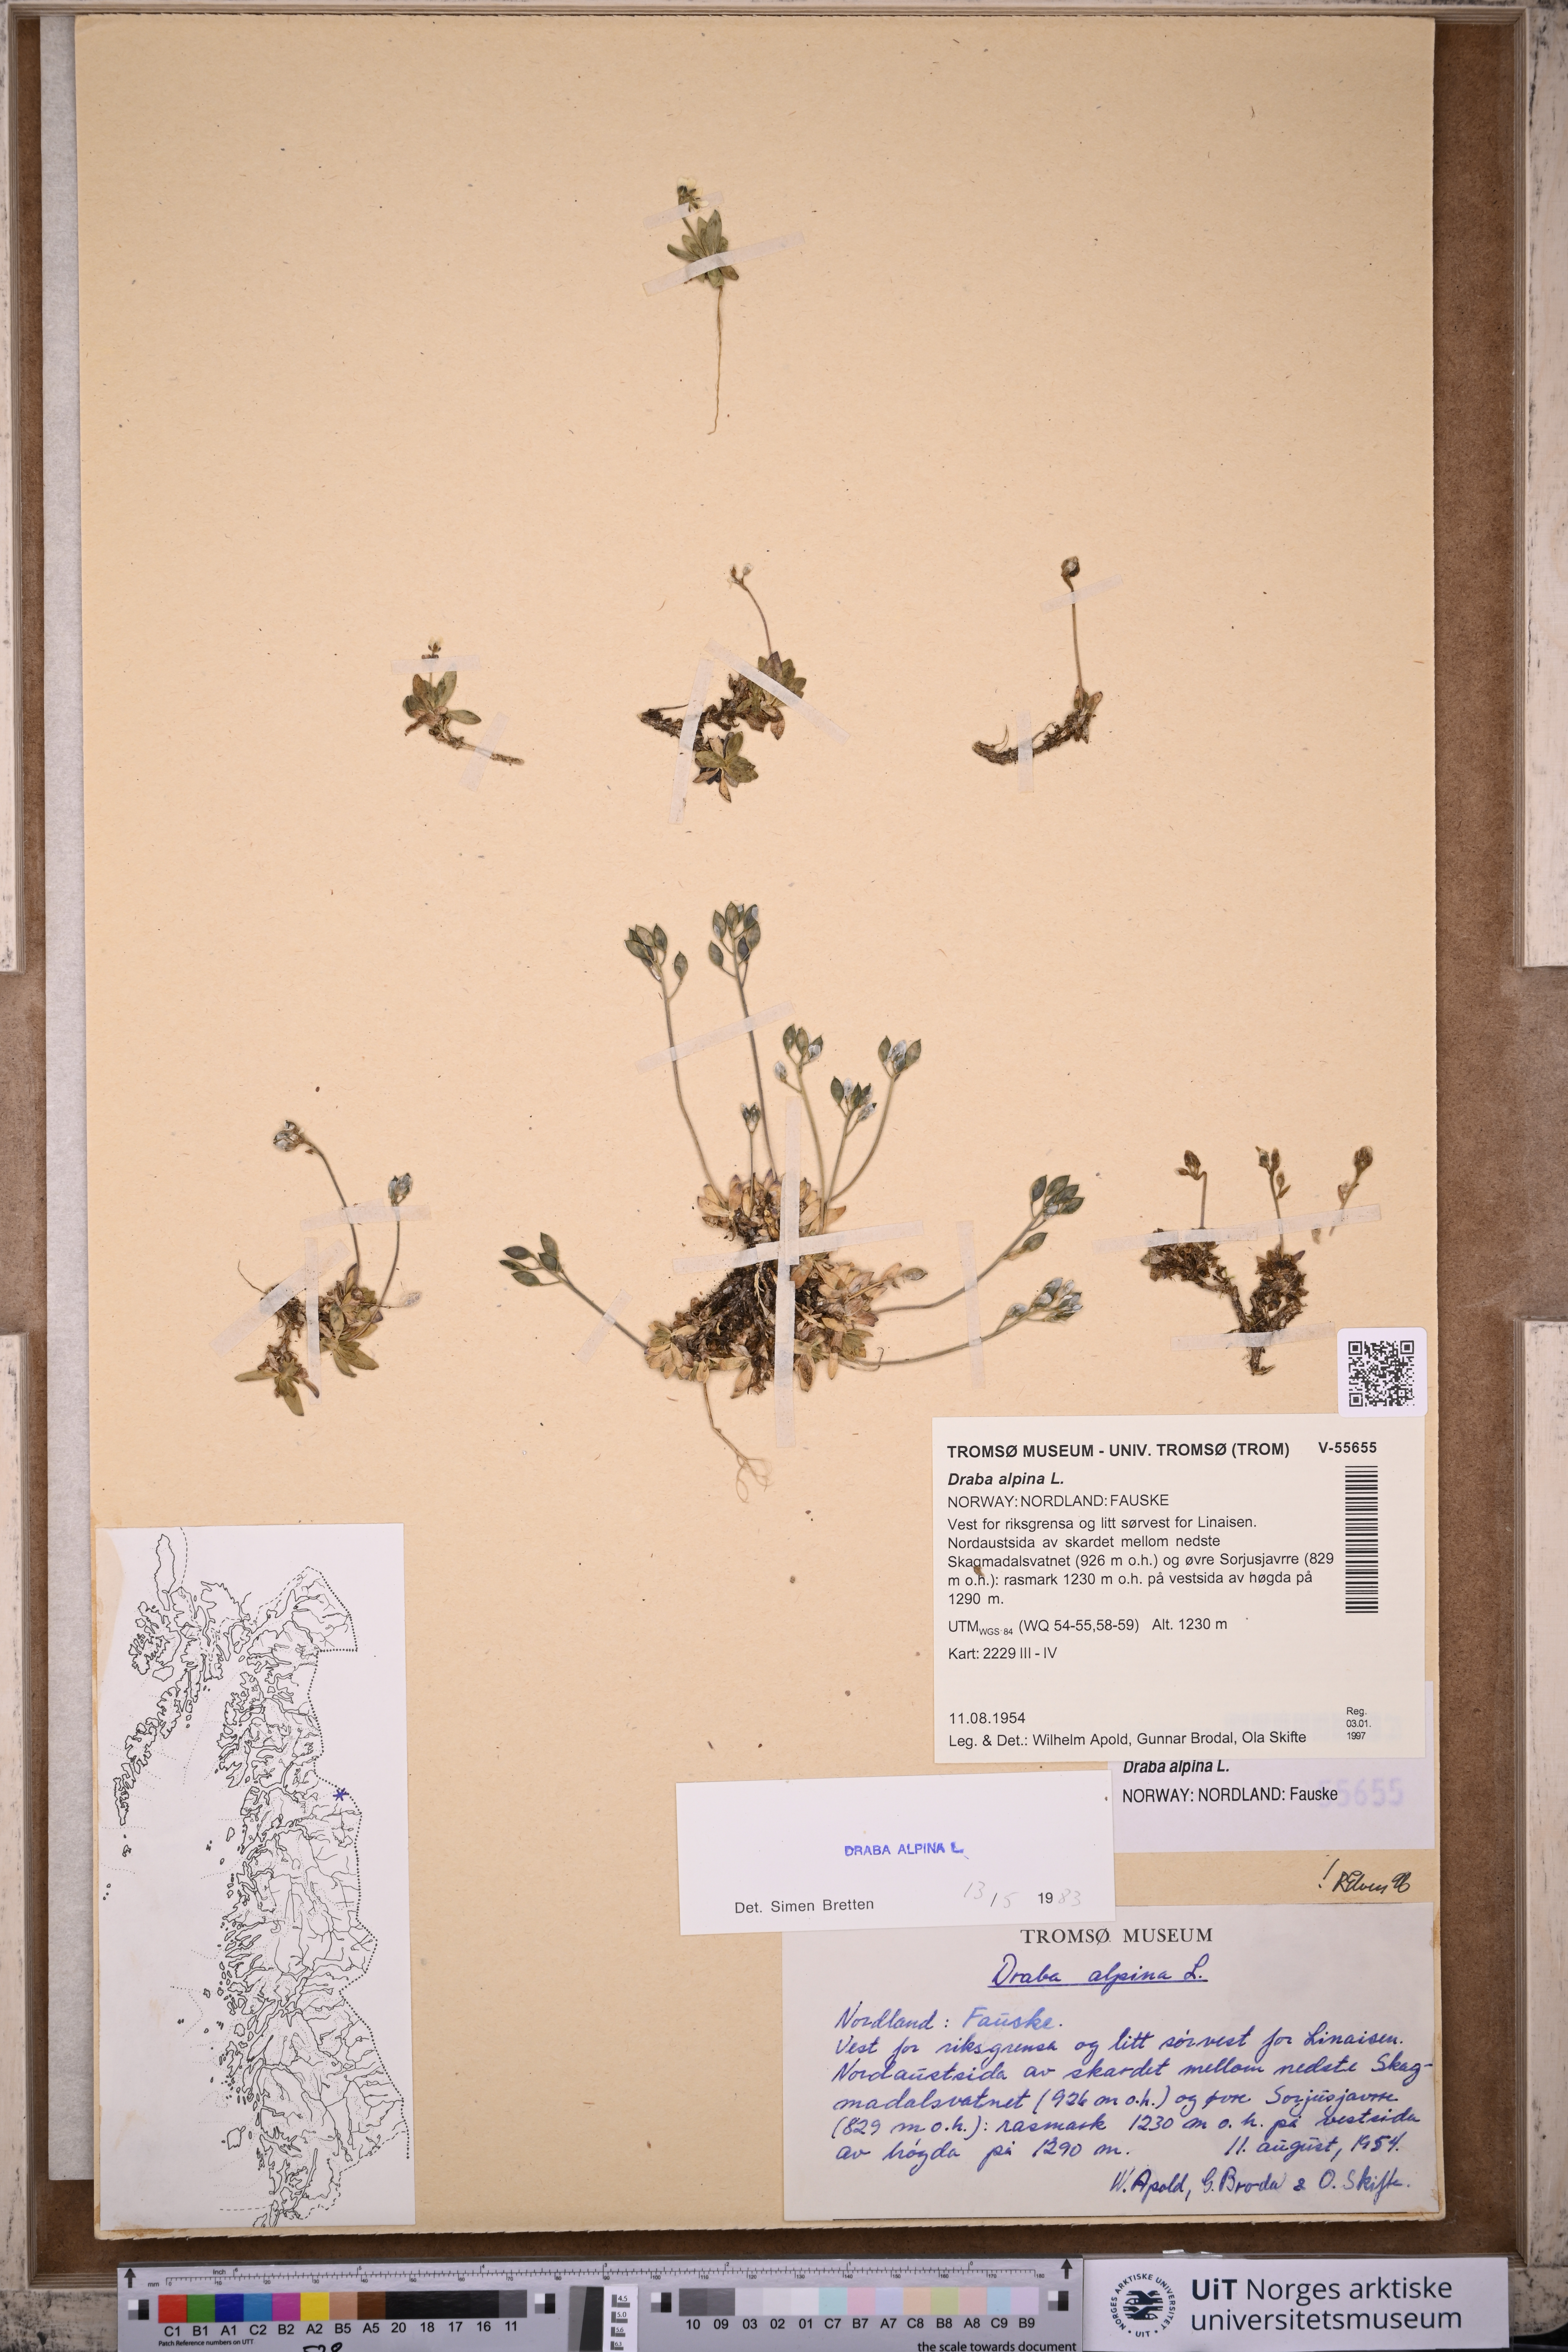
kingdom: Plantae
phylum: Tracheophyta
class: Magnoliopsida
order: Brassicales
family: Brassicaceae
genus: Draba
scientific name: Draba alpina
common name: Alpine draba
